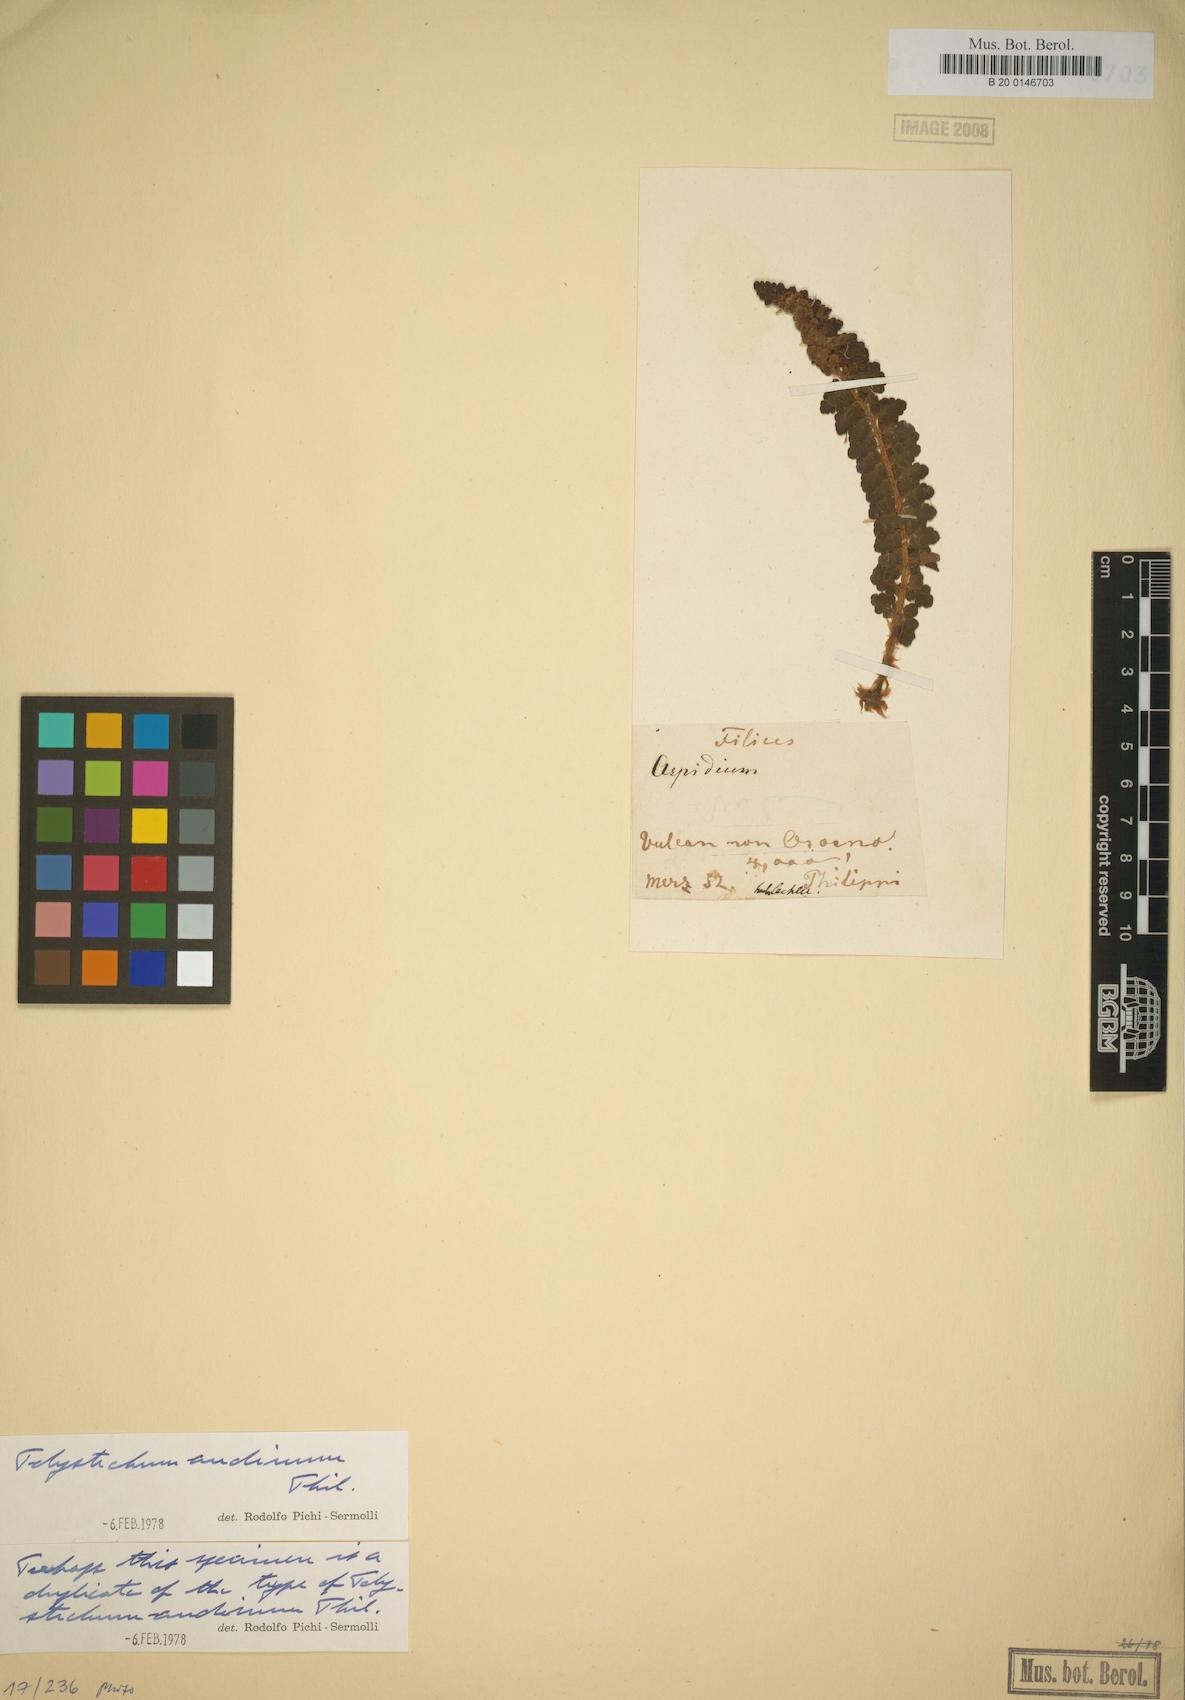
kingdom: Plantae
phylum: Tracheophyta
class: Polypodiopsida
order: Polypodiales
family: Dryopteridaceae
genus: Polystichum
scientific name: Polystichum andinum
